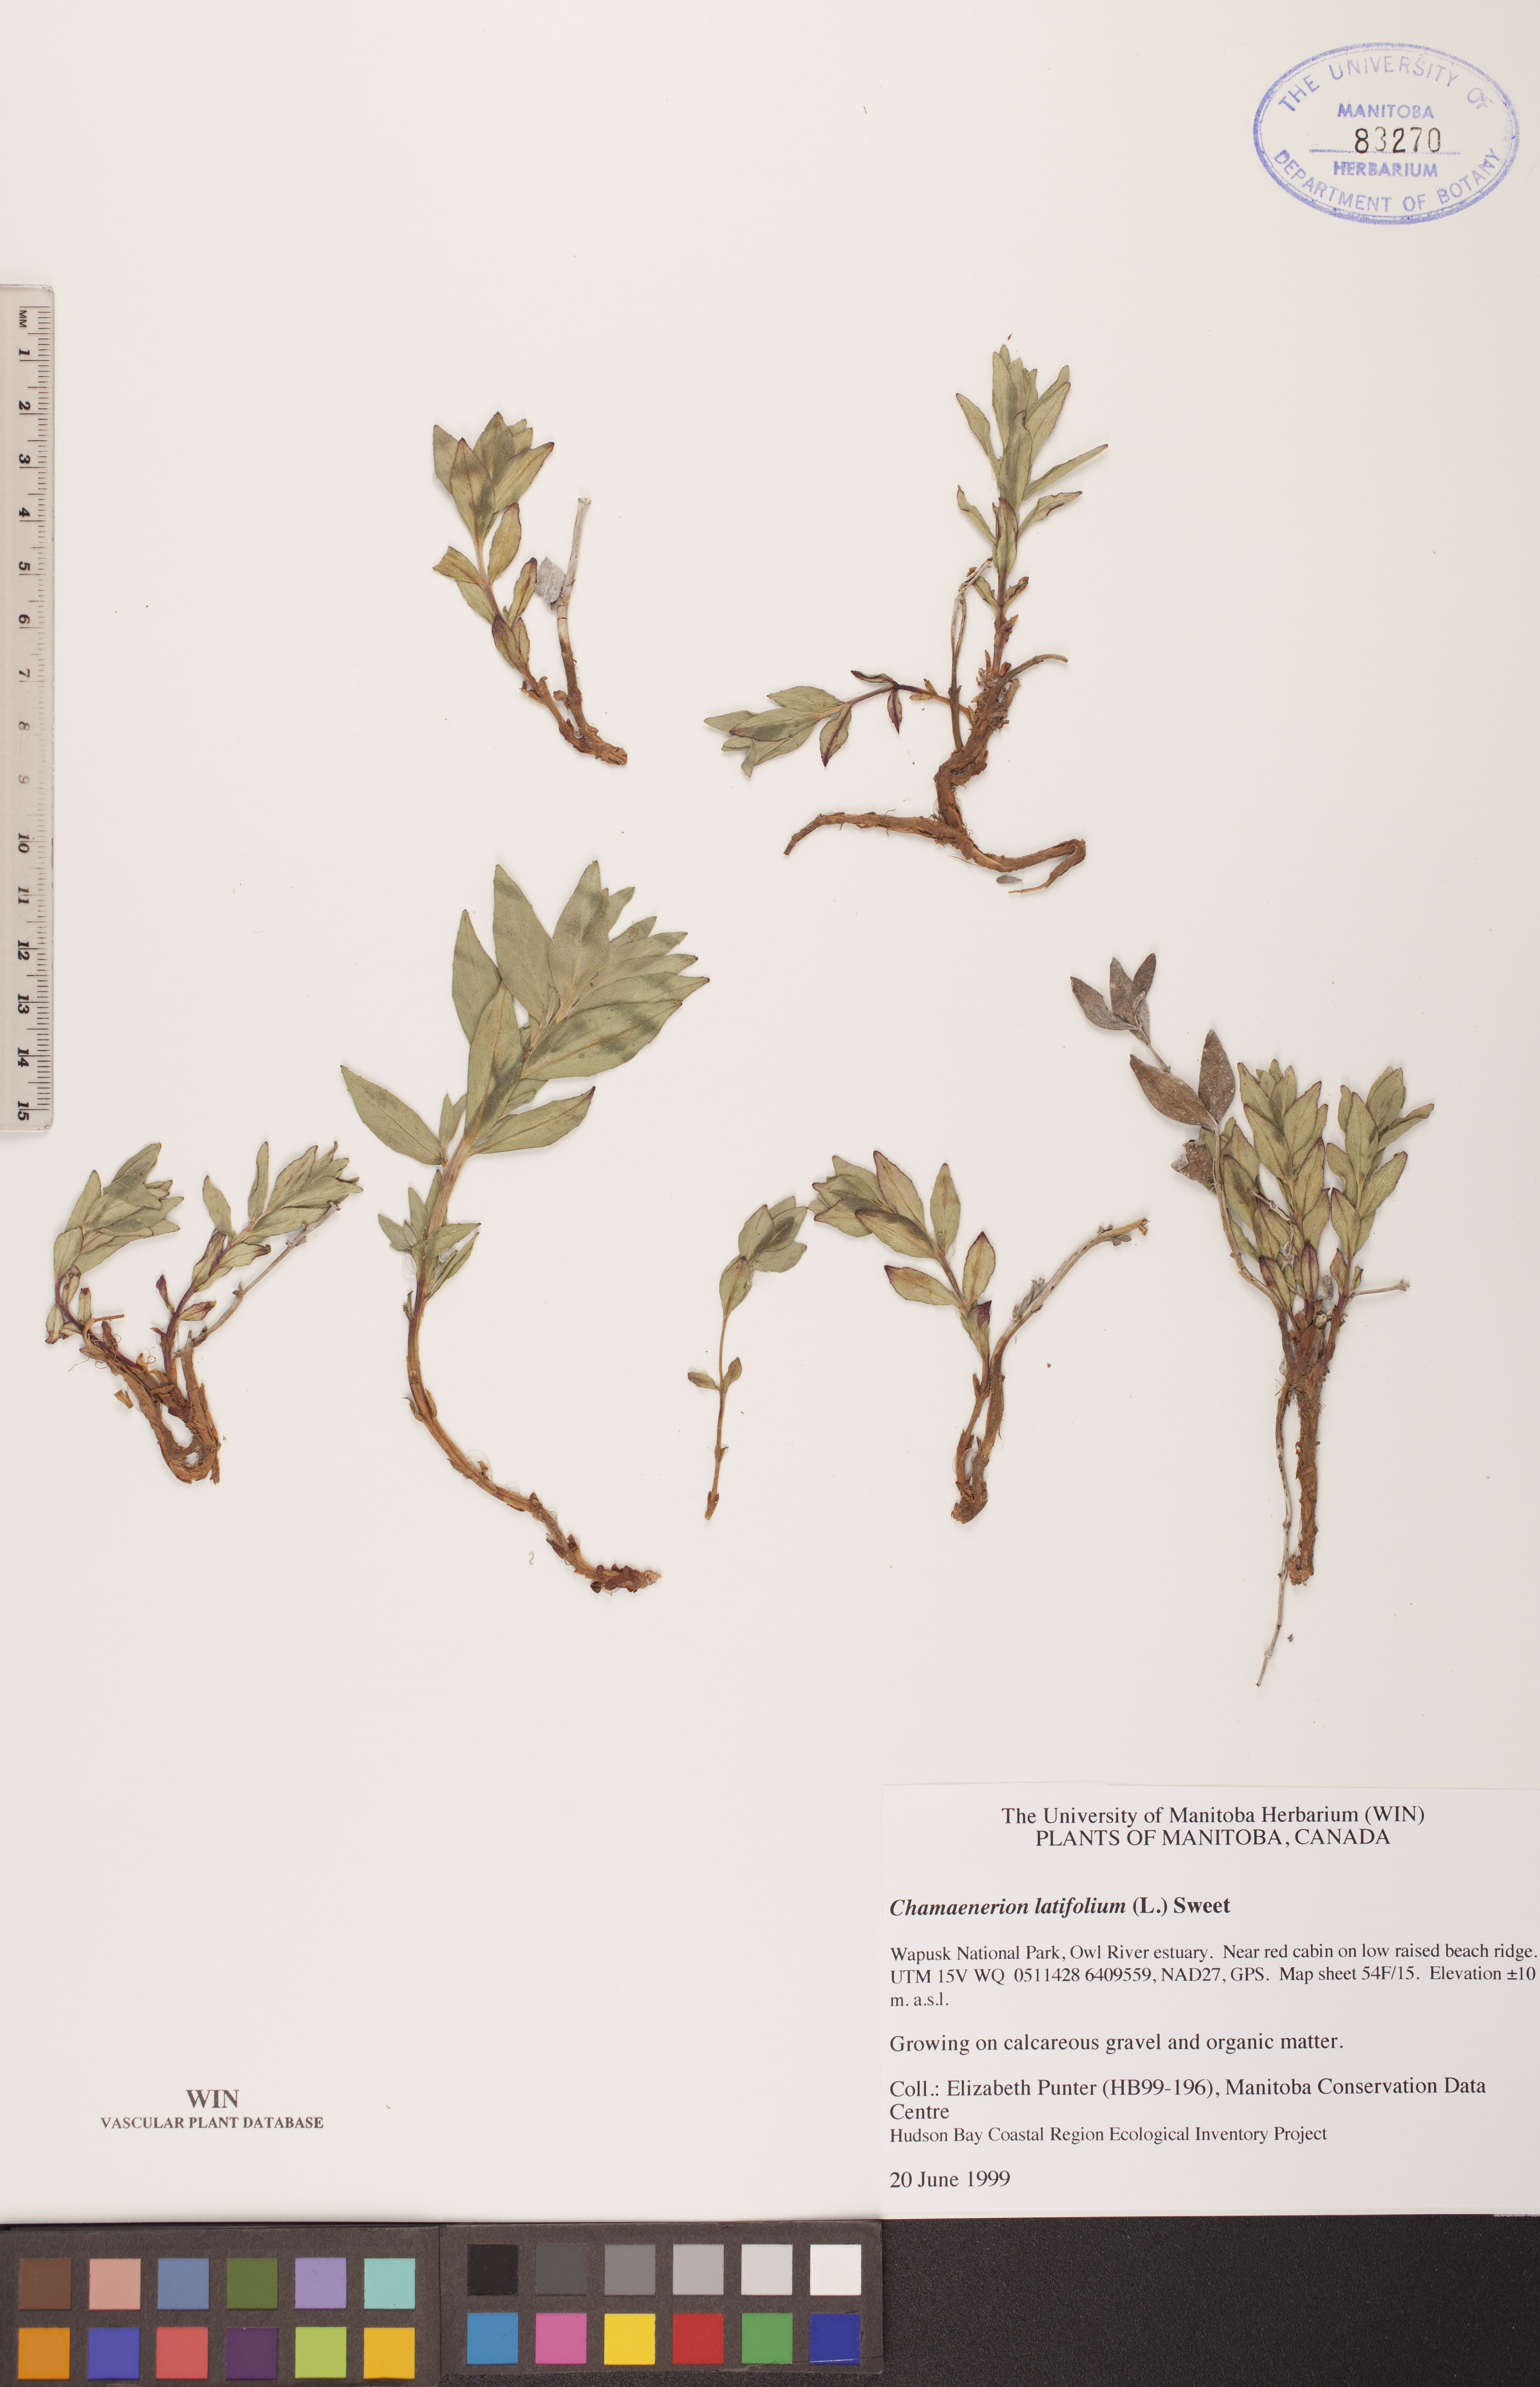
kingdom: Plantae
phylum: Tracheophyta
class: Magnoliopsida
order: Myrtales
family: Onagraceae
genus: Chamaenerion
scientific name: Chamaenerion latifolium
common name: Dwarf fireweed
